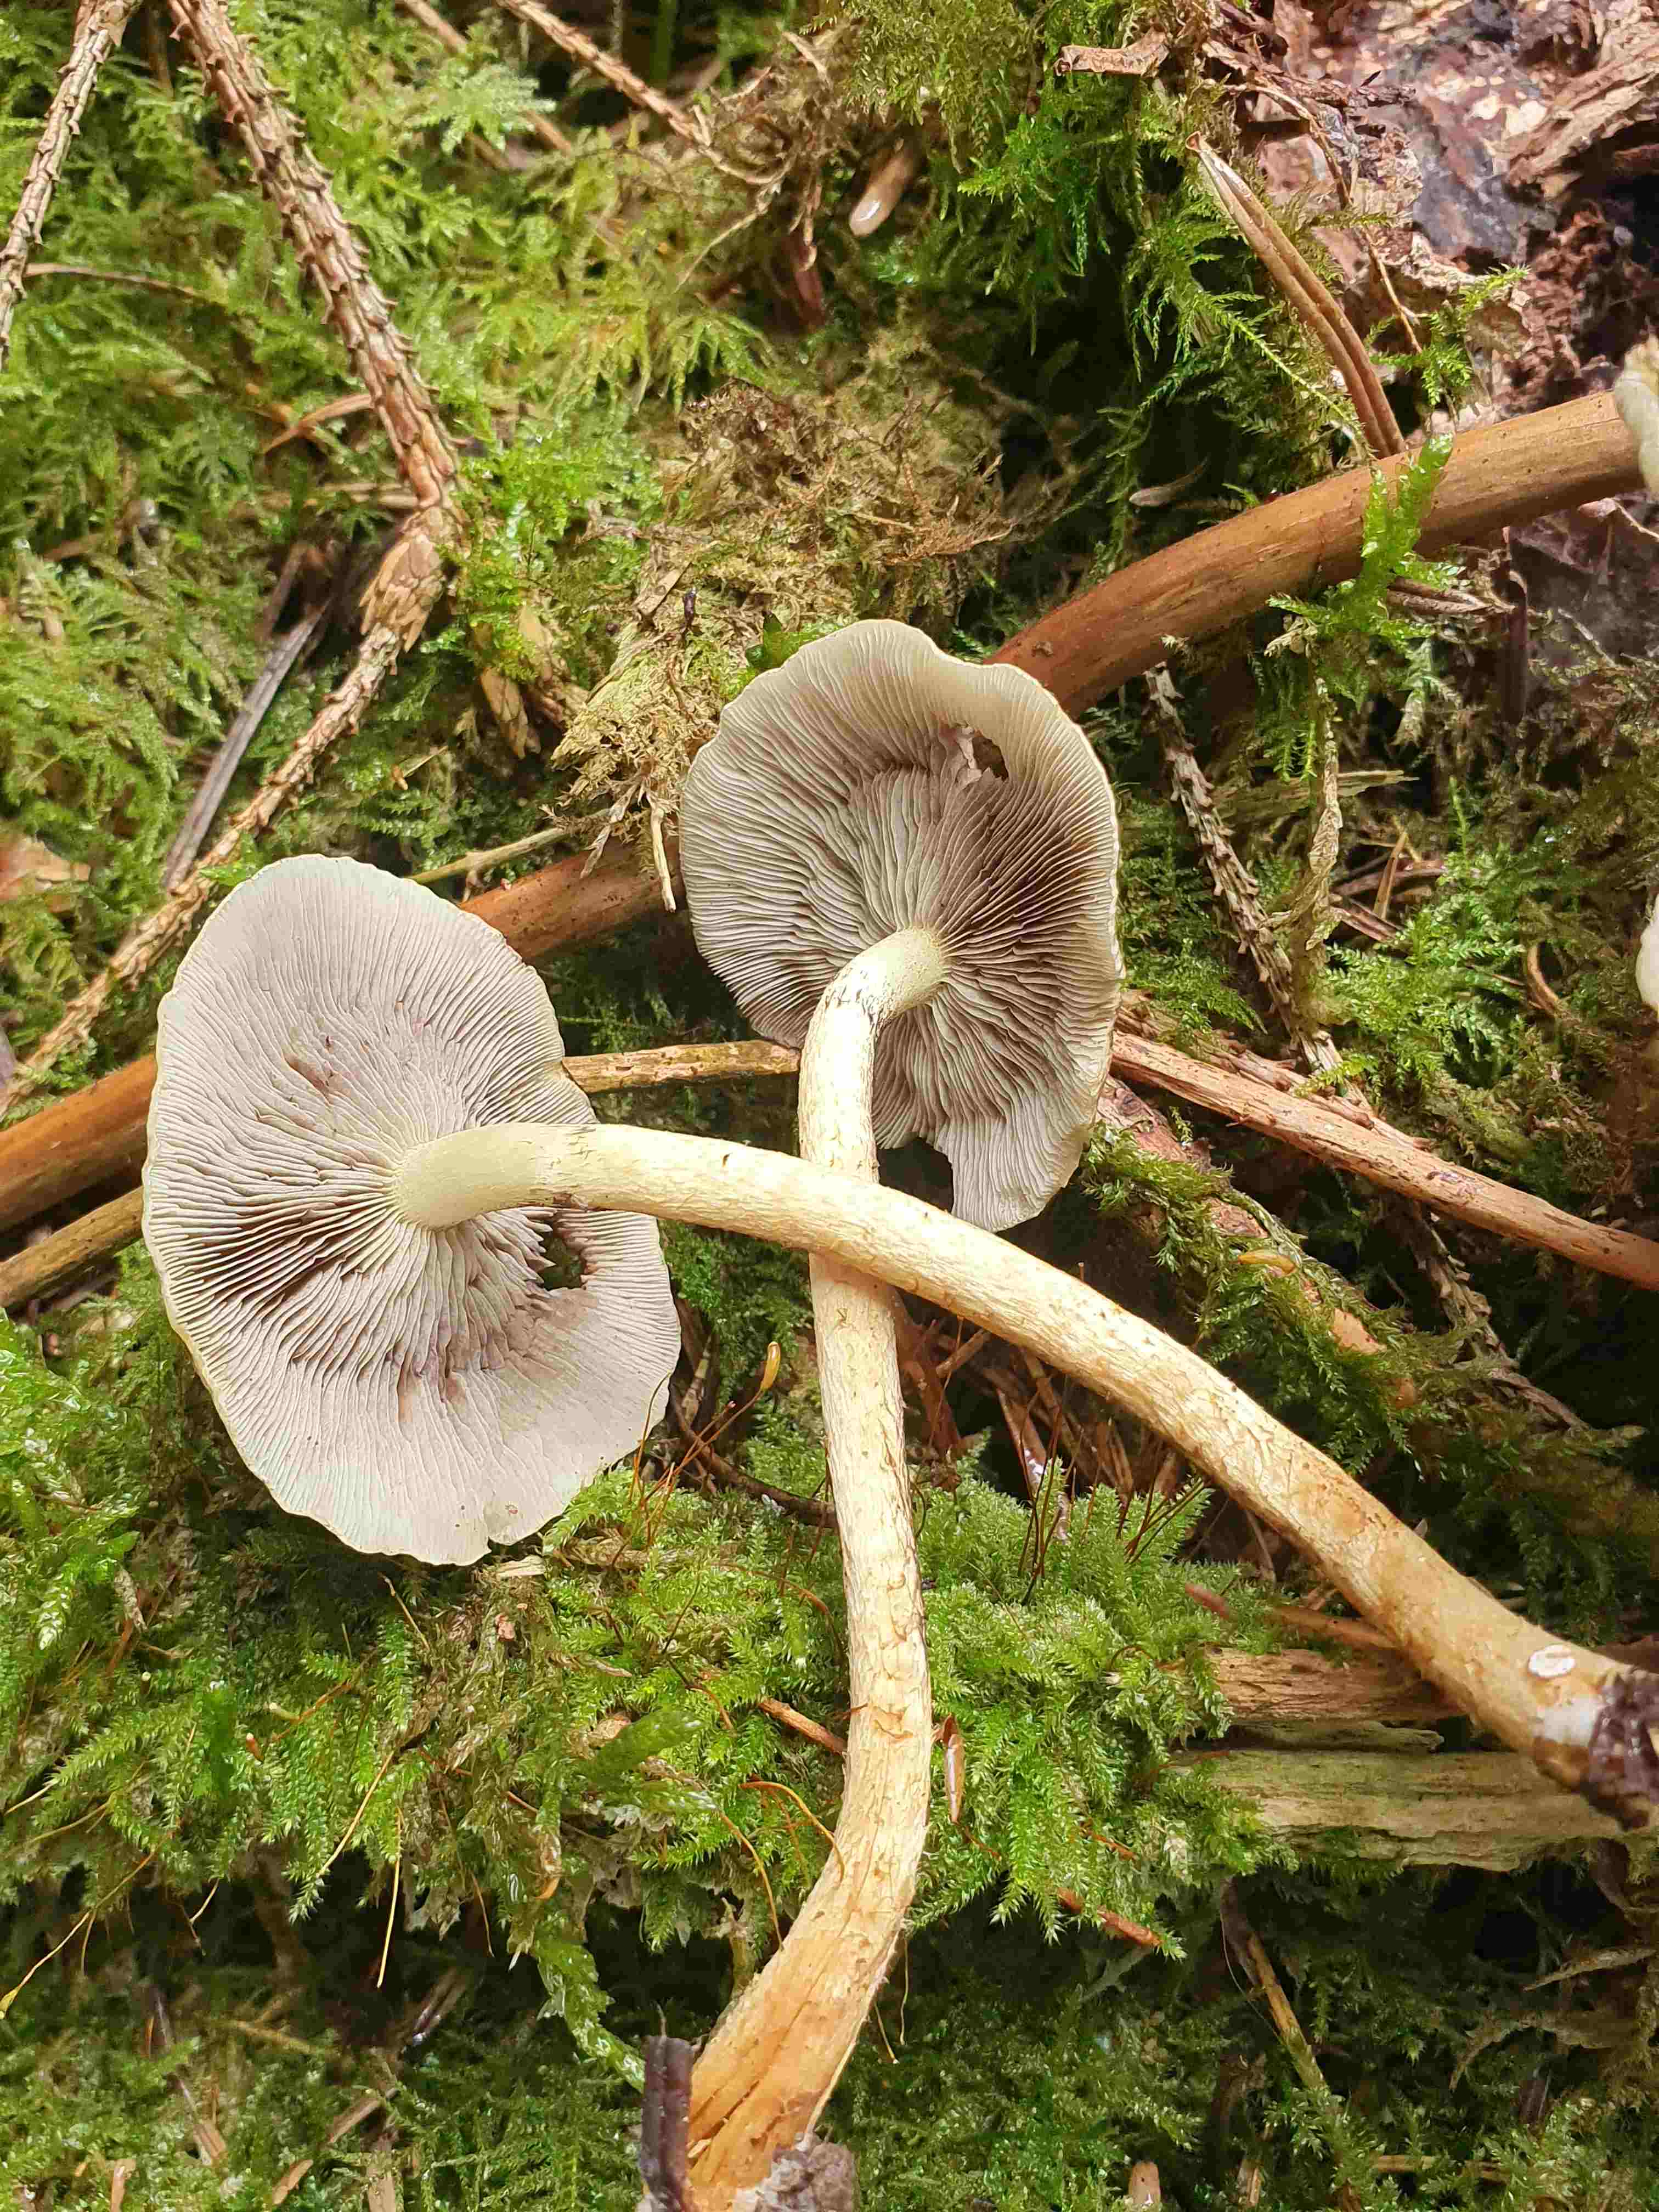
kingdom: Fungi
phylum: Basidiomycota
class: Agaricomycetes
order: Agaricales
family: Strophariaceae
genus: Hypholoma
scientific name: Hypholoma fasciculare
